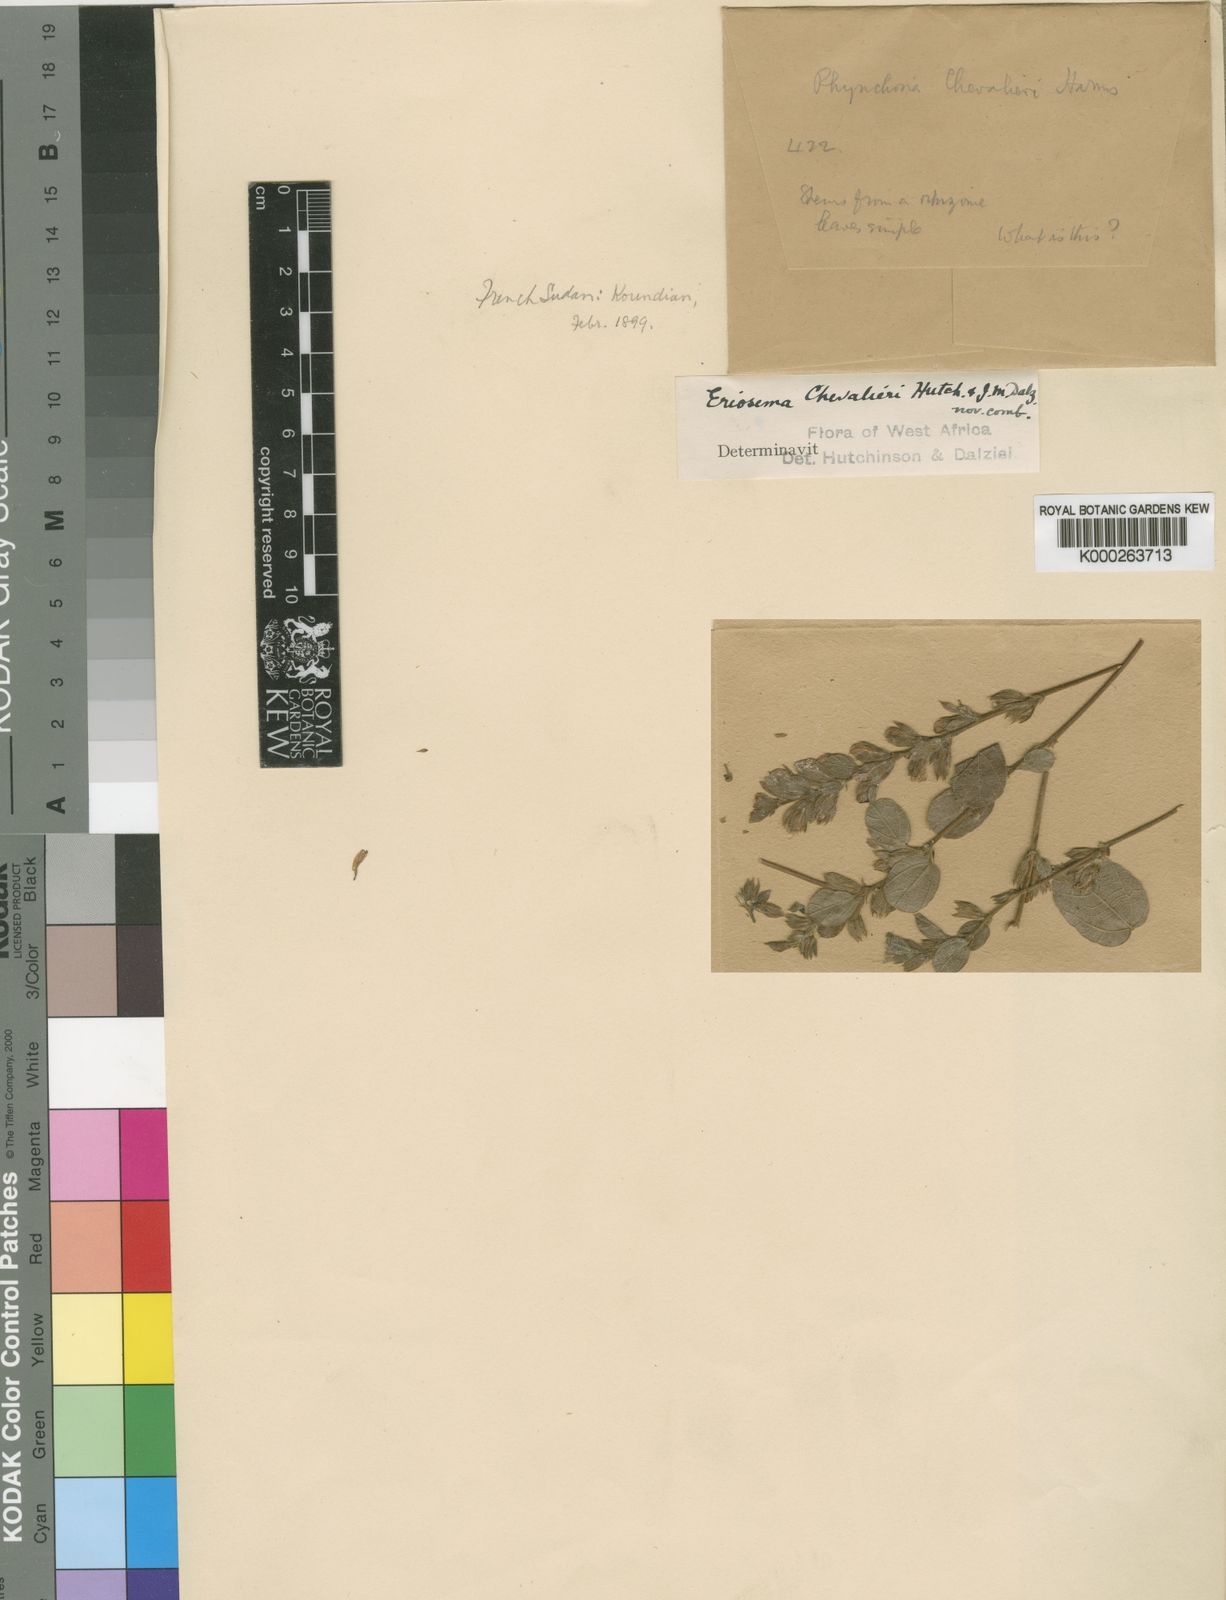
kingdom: Plantae
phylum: Tracheophyta
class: Magnoliopsida
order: Fabales
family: Fabaceae
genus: Rhynchosia
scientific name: Rhynchosia chevalieri
